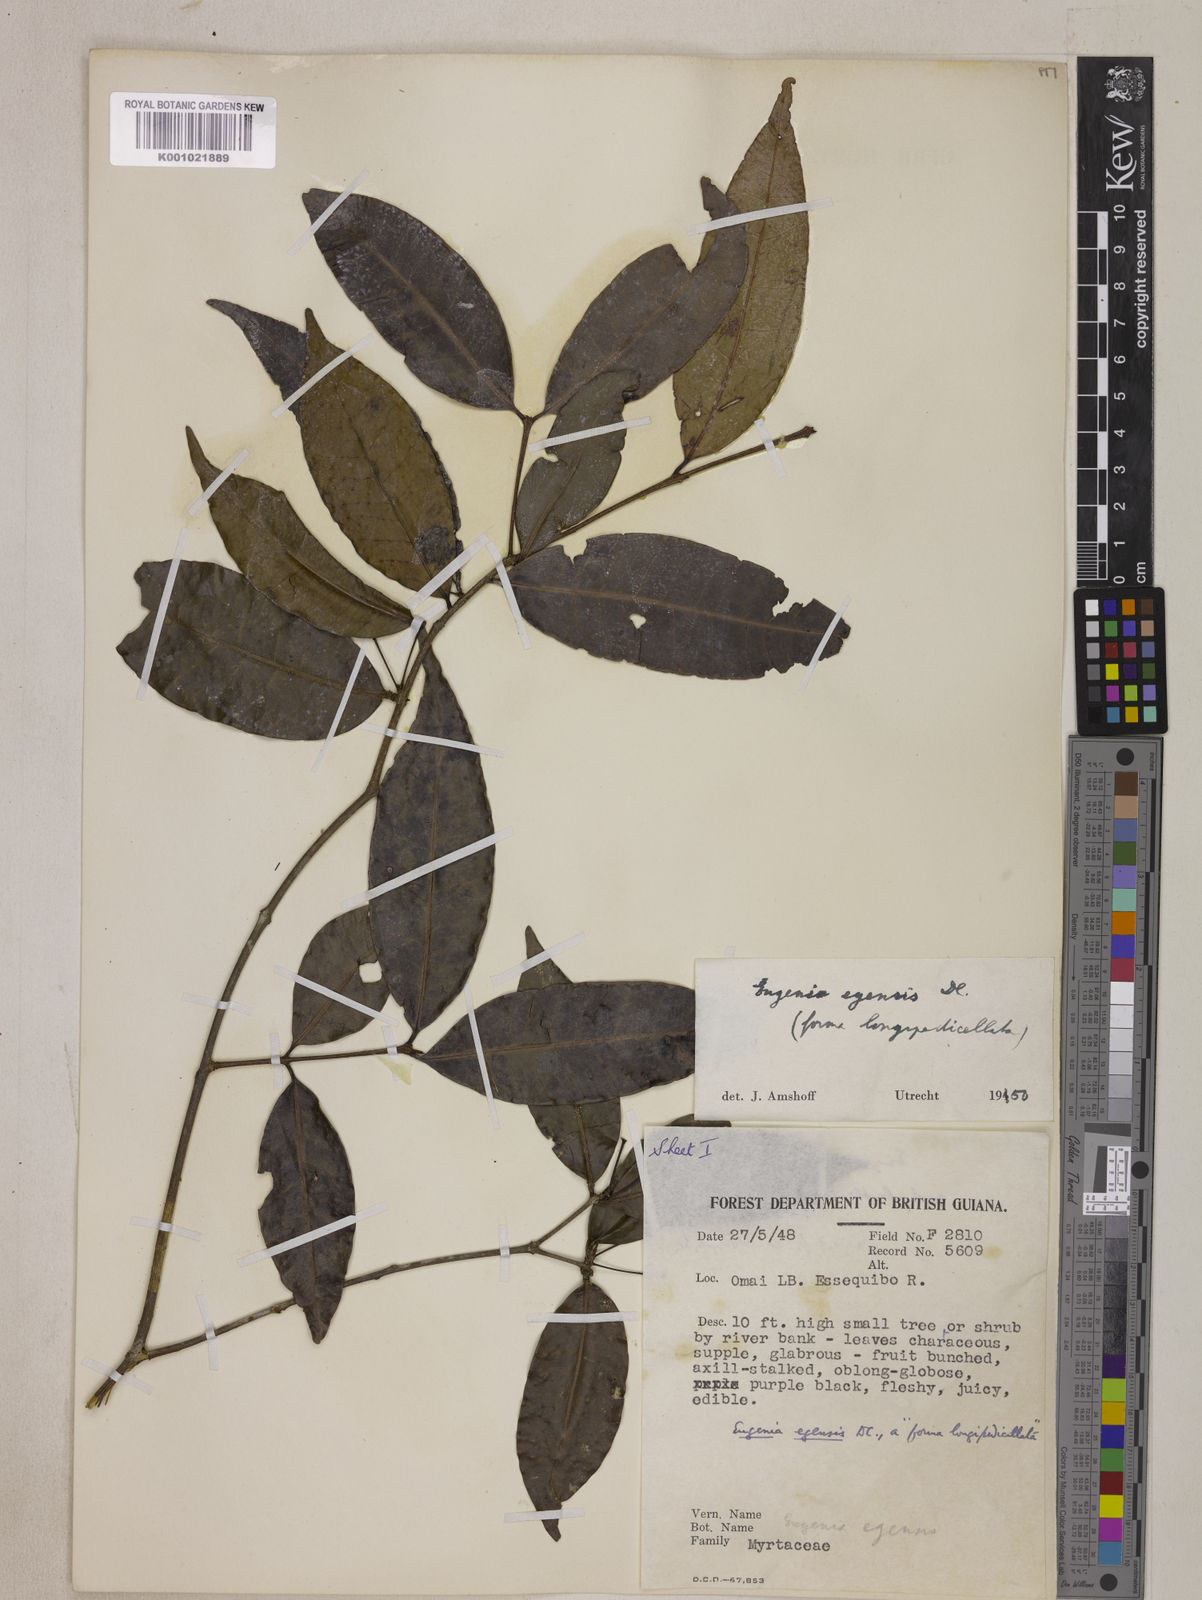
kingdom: Plantae
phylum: Tracheophyta
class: Magnoliopsida
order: Myrtales
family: Myrtaceae
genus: Eugenia
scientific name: Eugenia egensis
